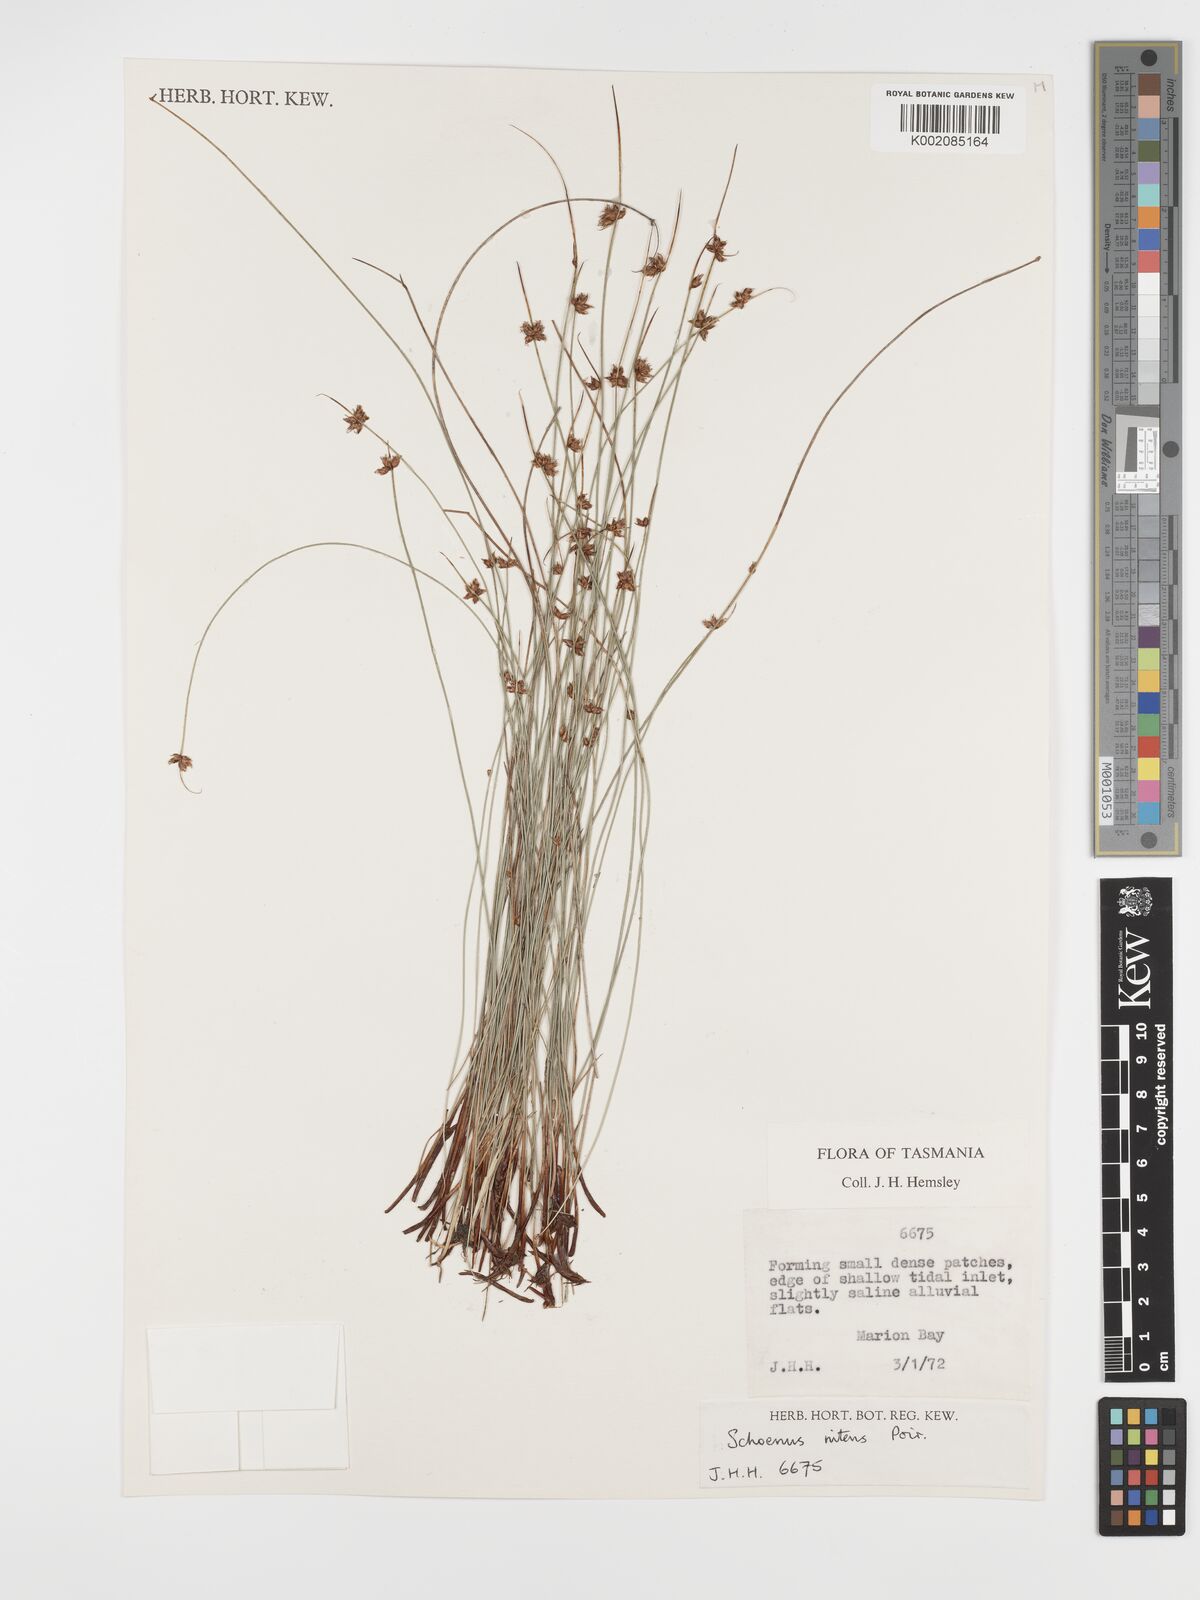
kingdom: Plantae
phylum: Tracheophyta
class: Liliopsida
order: Poales
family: Cyperaceae
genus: Schoenus
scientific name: Schoenus nitens
